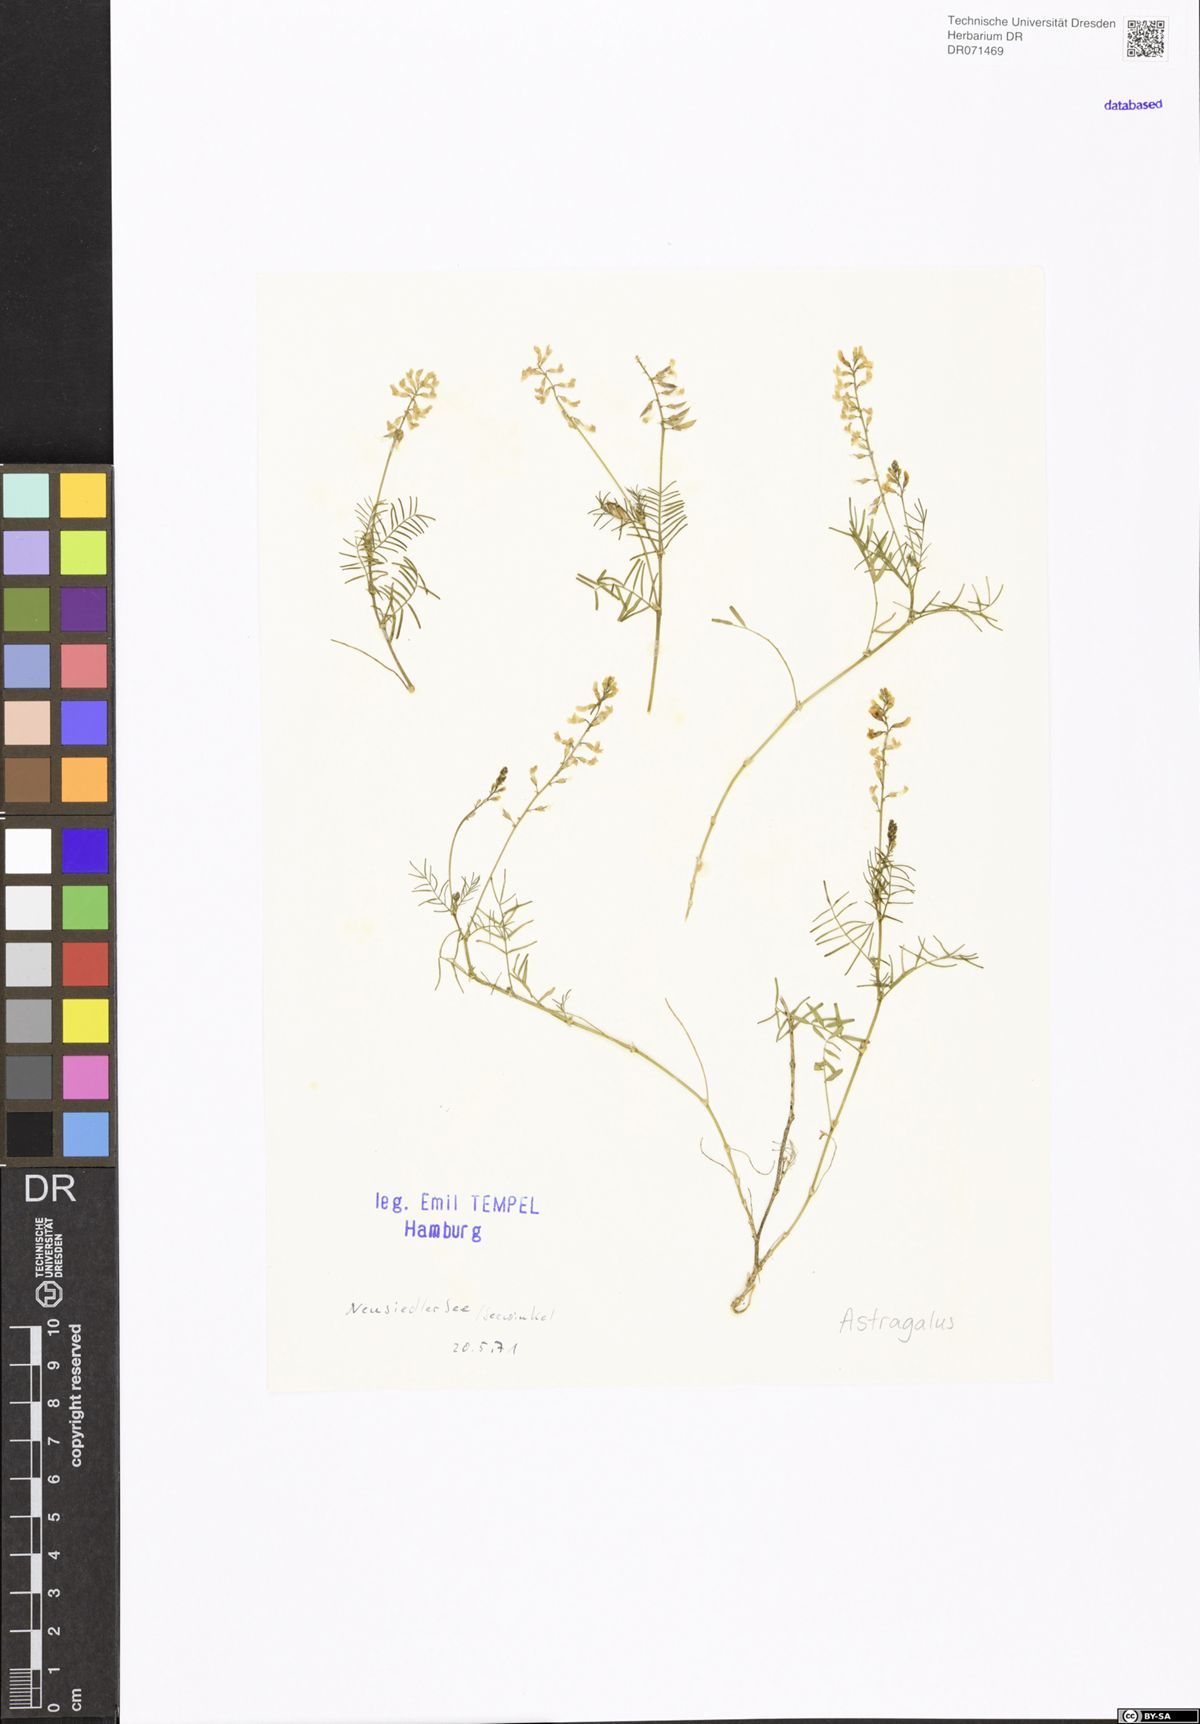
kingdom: Plantae
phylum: Tracheophyta
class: Magnoliopsida
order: Fabales
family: Fabaceae
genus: Astragalus
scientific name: Astragalus
